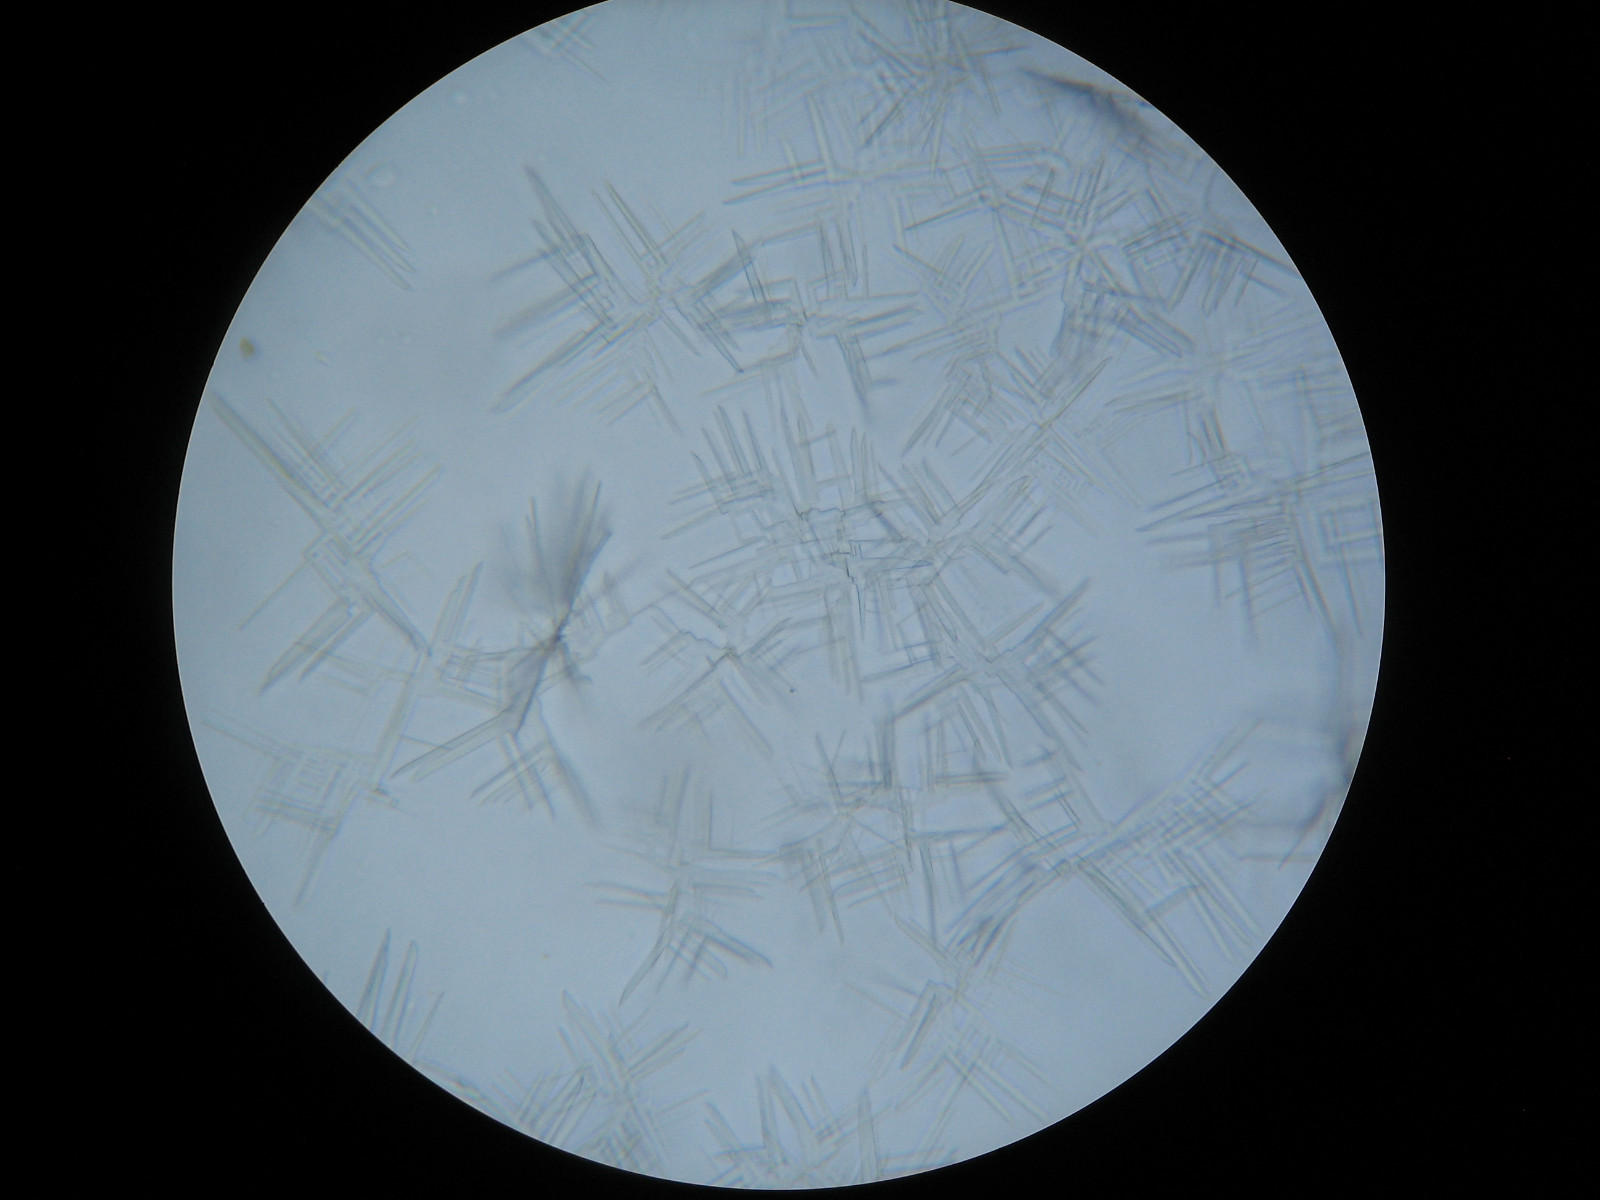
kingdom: Fungi
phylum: Ascomycota
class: Lecanoromycetes
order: Lecideales
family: Lecideaceae
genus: Lecidea
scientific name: Lecidea nylanderi
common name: Nylander's tile lichen
